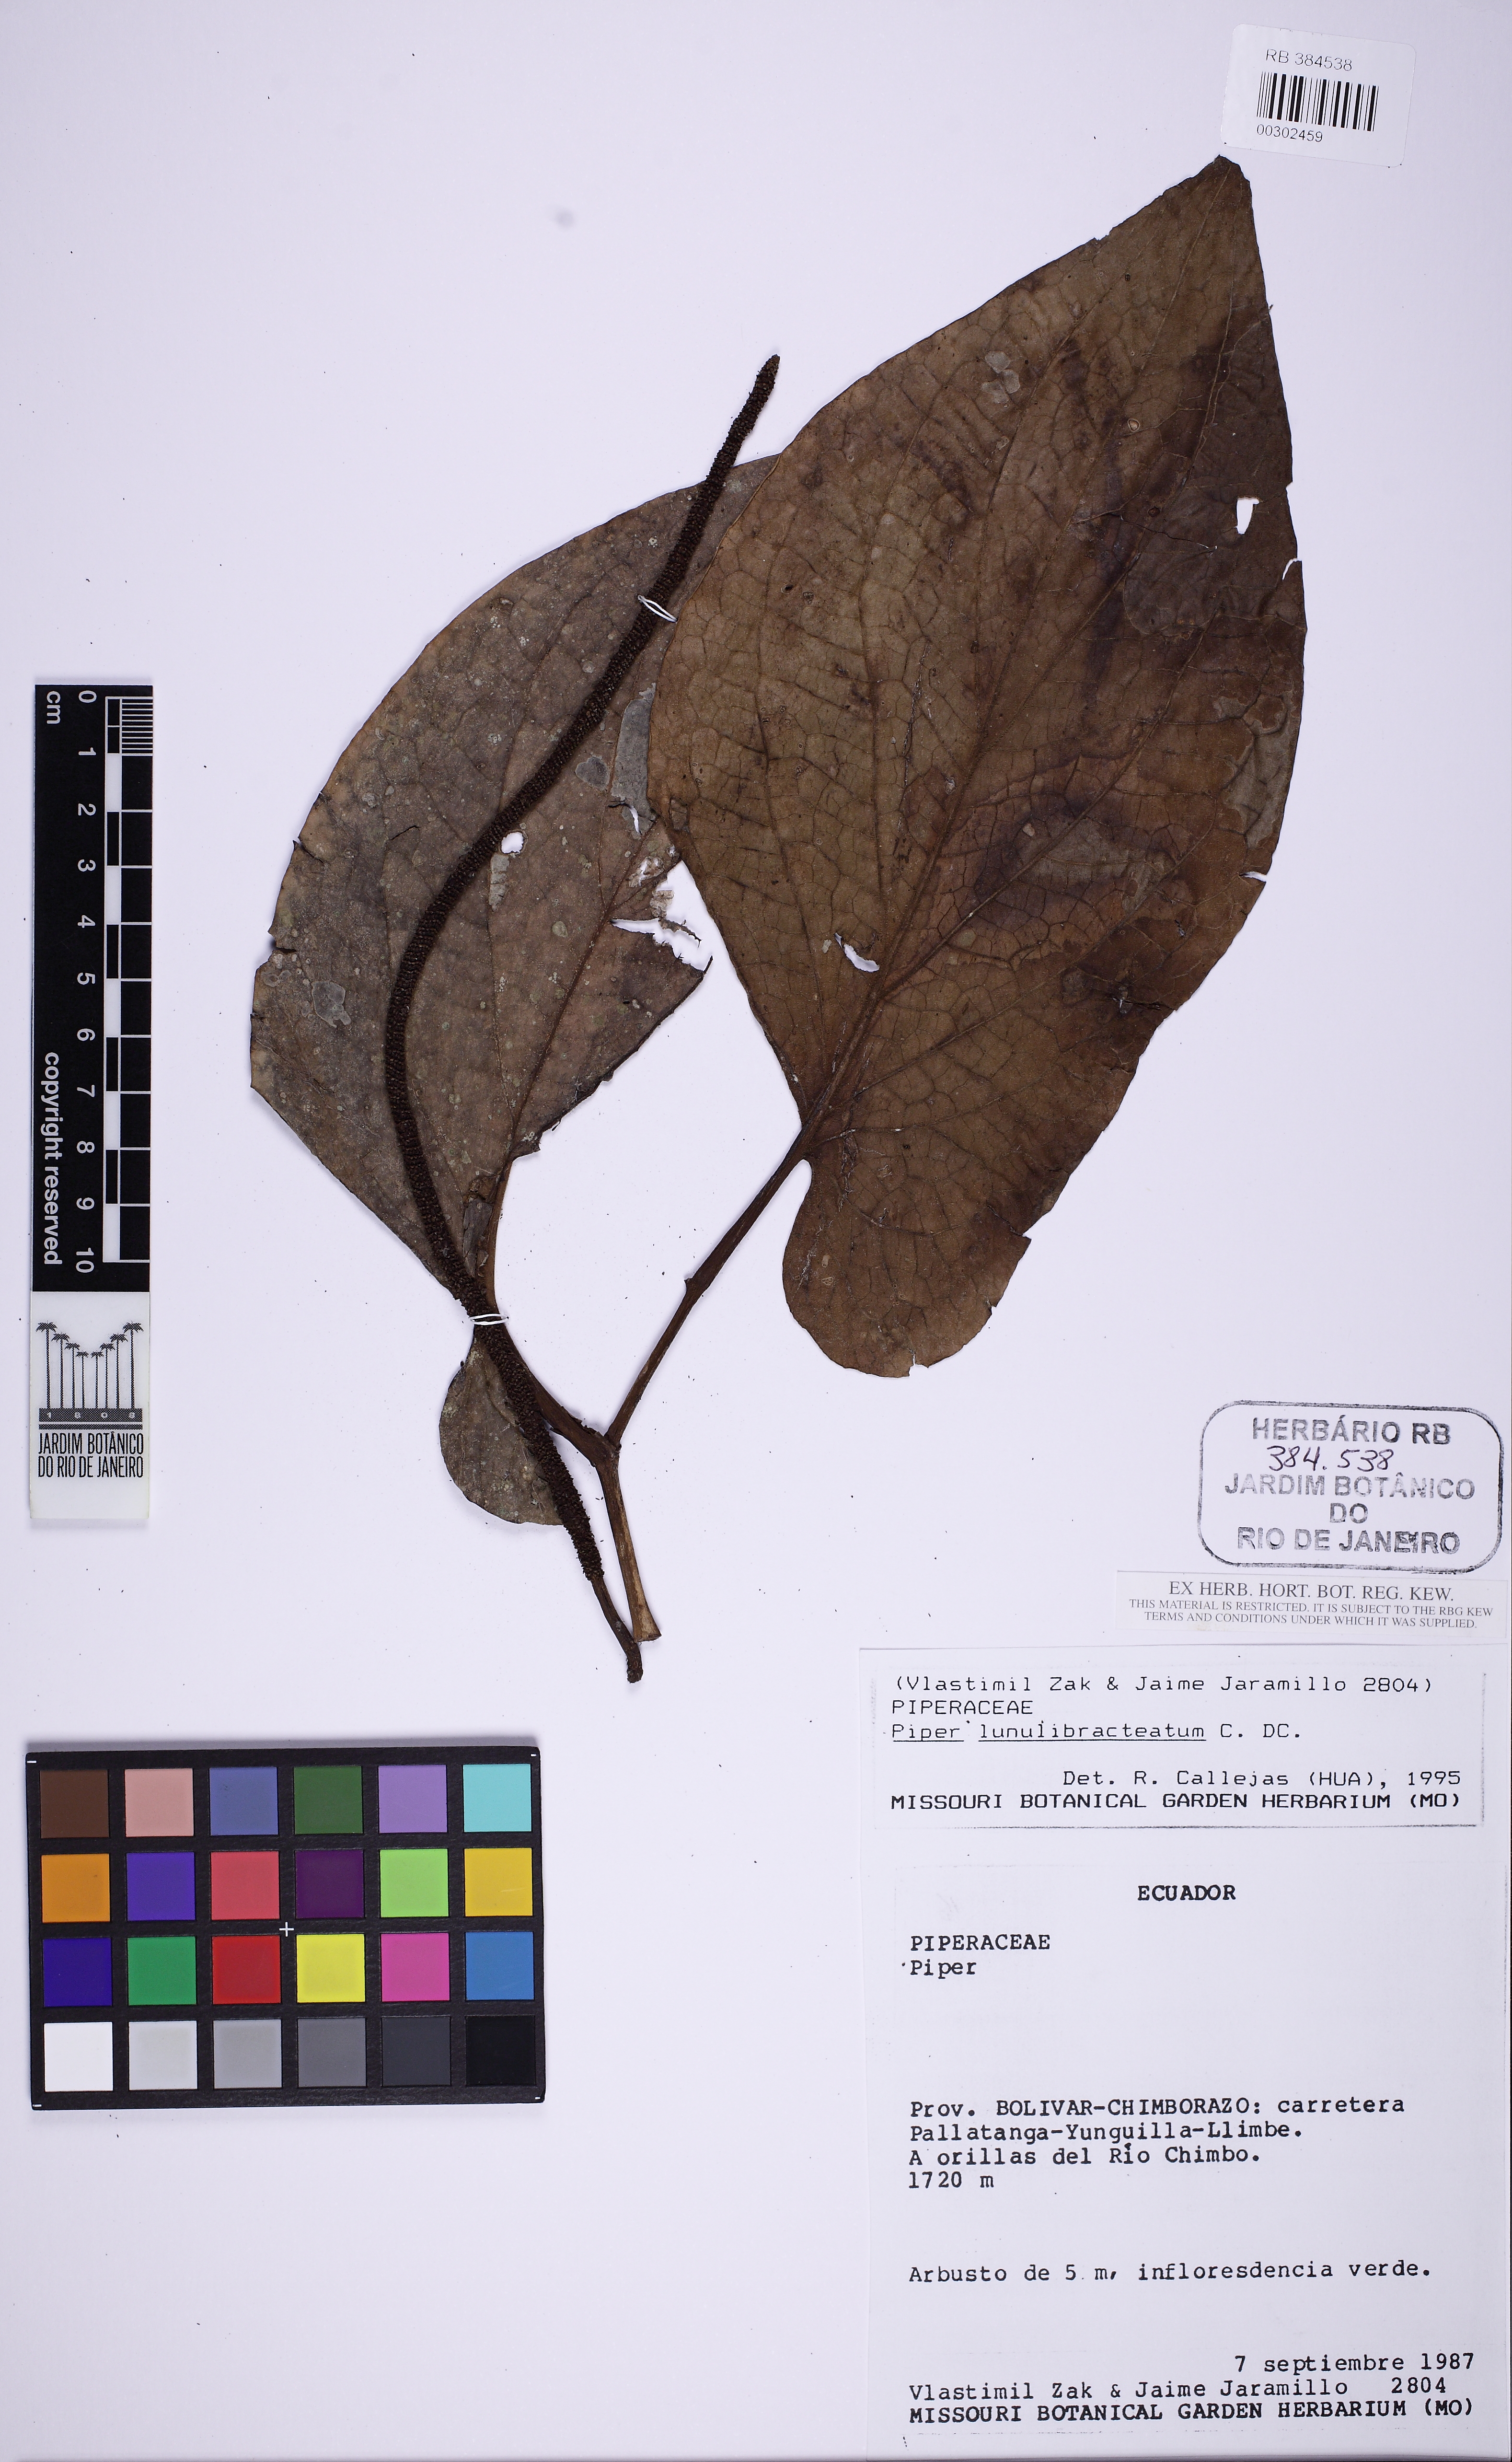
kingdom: Plantae
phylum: Tracheophyta
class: Magnoliopsida
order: Piperales
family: Piperaceae
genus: Piper
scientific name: Piper lunulibracteatum
